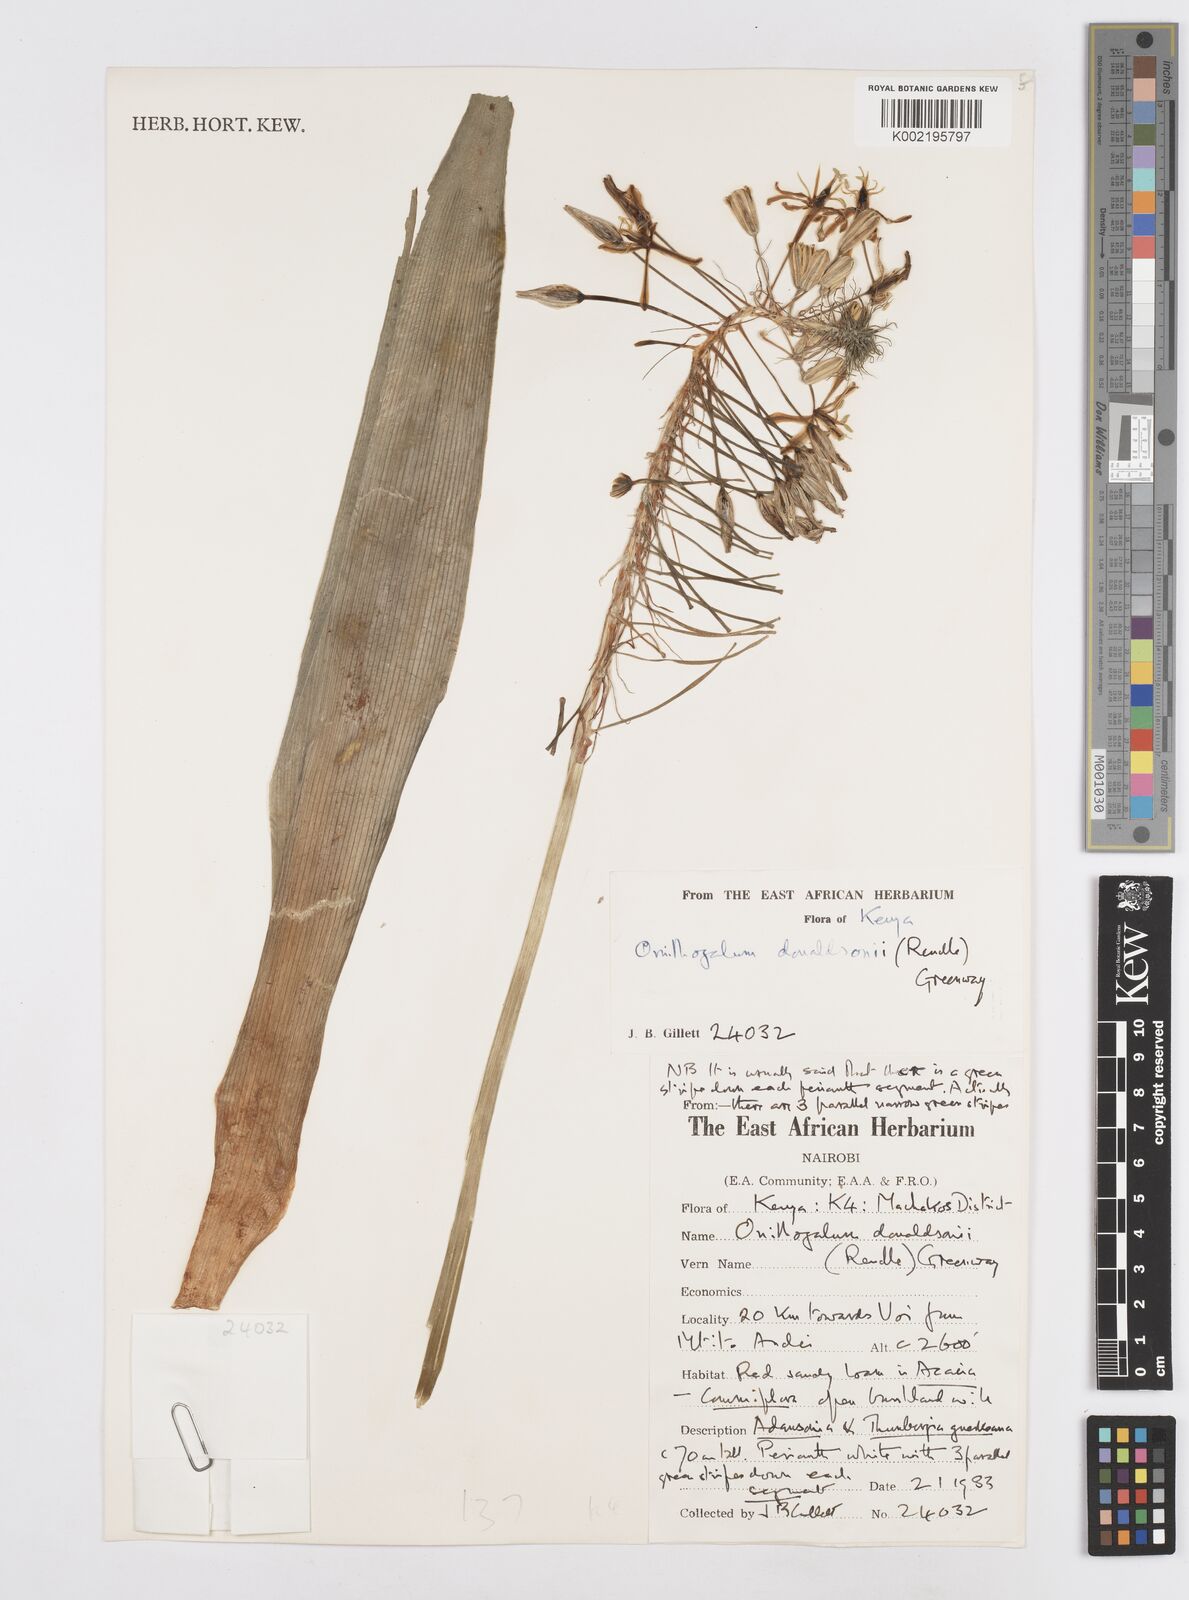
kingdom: Plantae
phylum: Tracheophyta
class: Liliopsida
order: Asparagales
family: Asparagaceae
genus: Albuca
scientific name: Albuca donaldsonii
